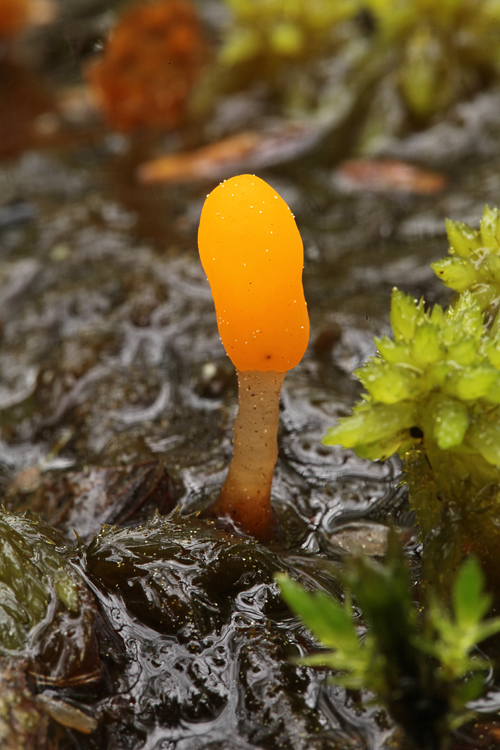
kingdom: Fungi
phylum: Ascomycota
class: Leotiomycetes
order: Helotiales
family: Cenangiaceae
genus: Mitrula
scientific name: Mitrula paludosa
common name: gul nøkketunge
